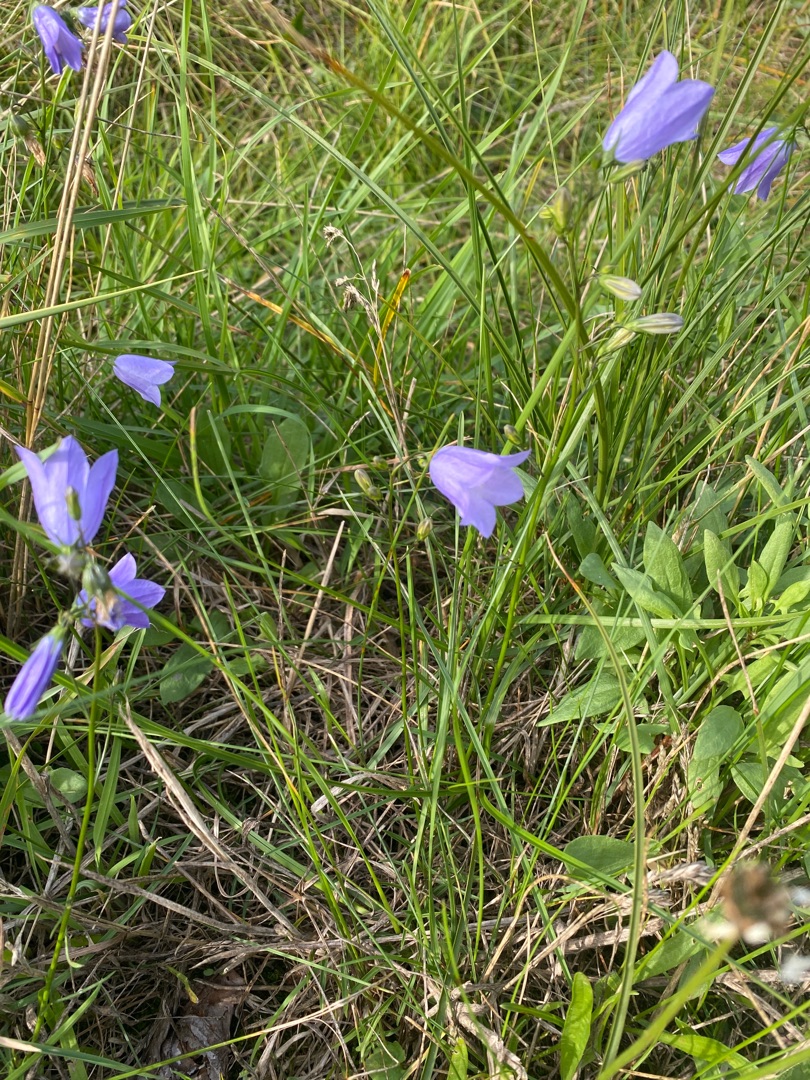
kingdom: Plantae
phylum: Tracheophyta
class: Magnoliopsida
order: Asterales
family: Campanulaceae
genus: Campanula
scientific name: Campanula rotundifolia
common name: Liden klokke
